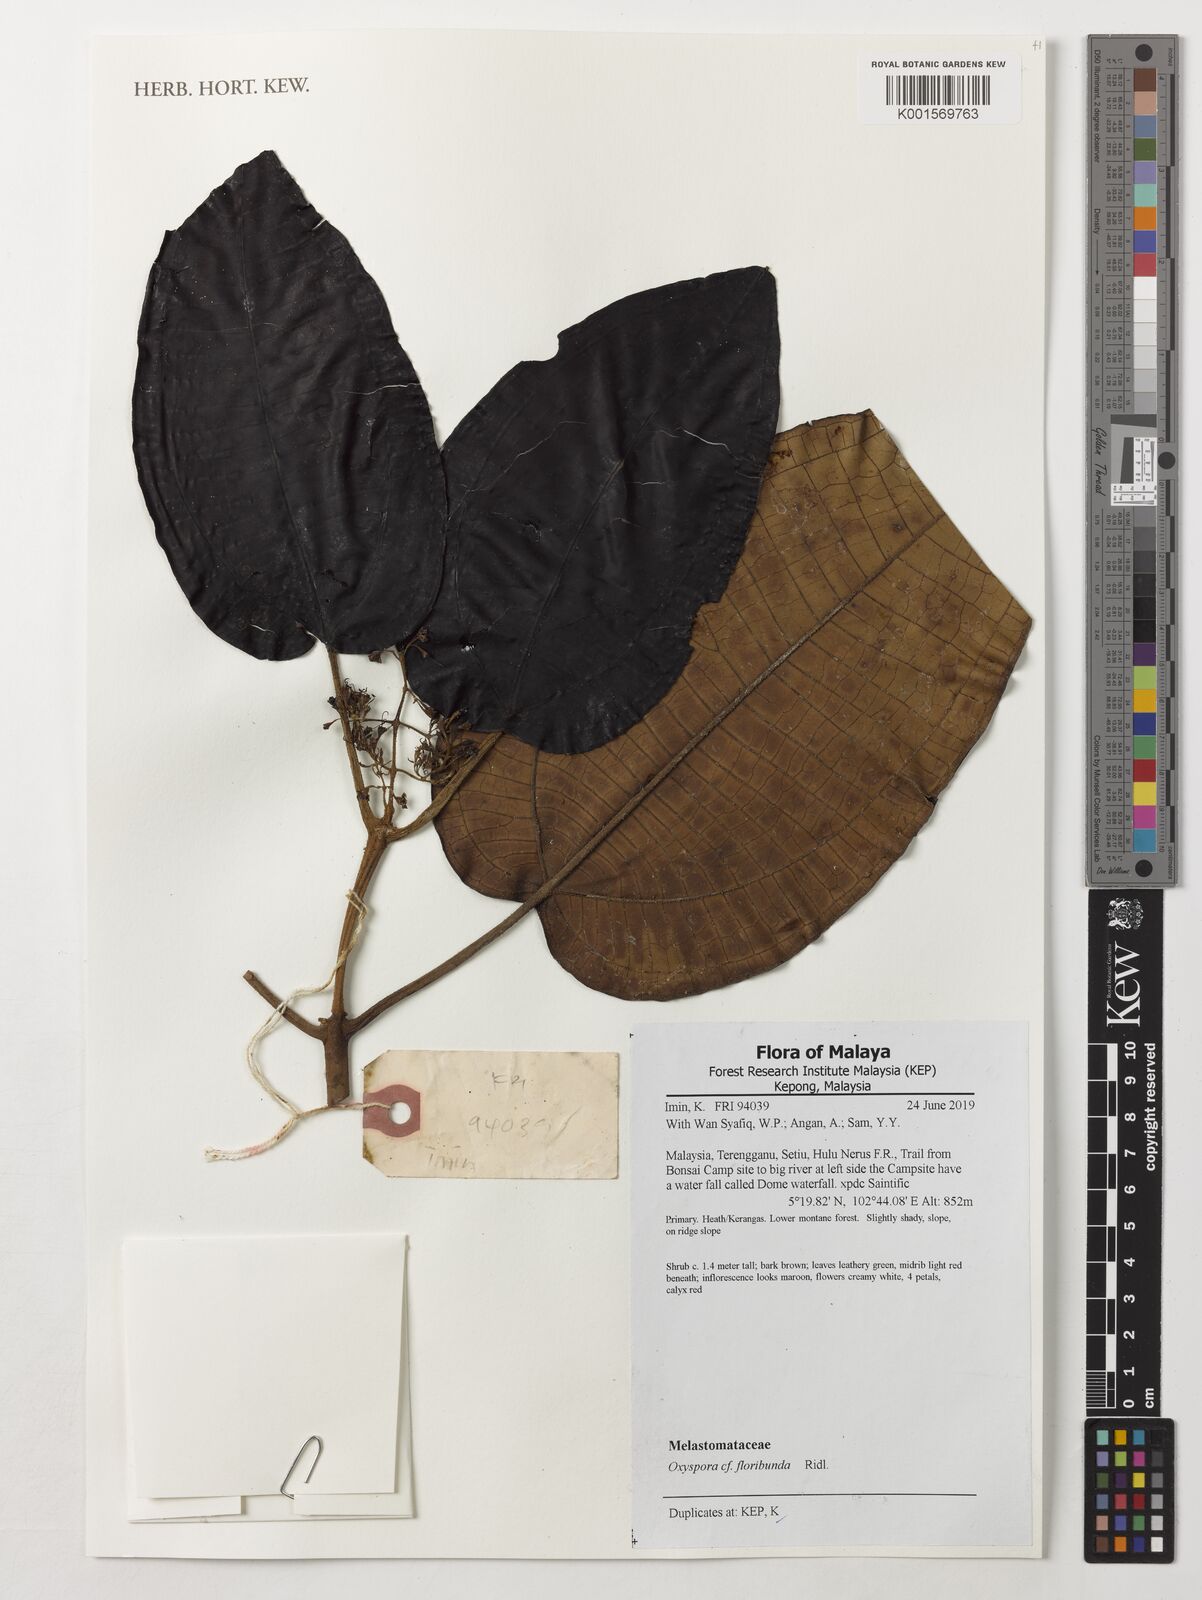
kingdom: Plantae
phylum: Tracheophyta
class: Magnoliopsida
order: Myrtales
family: Melastomataceae
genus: Oxyspora
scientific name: Oxyspora floribunda
